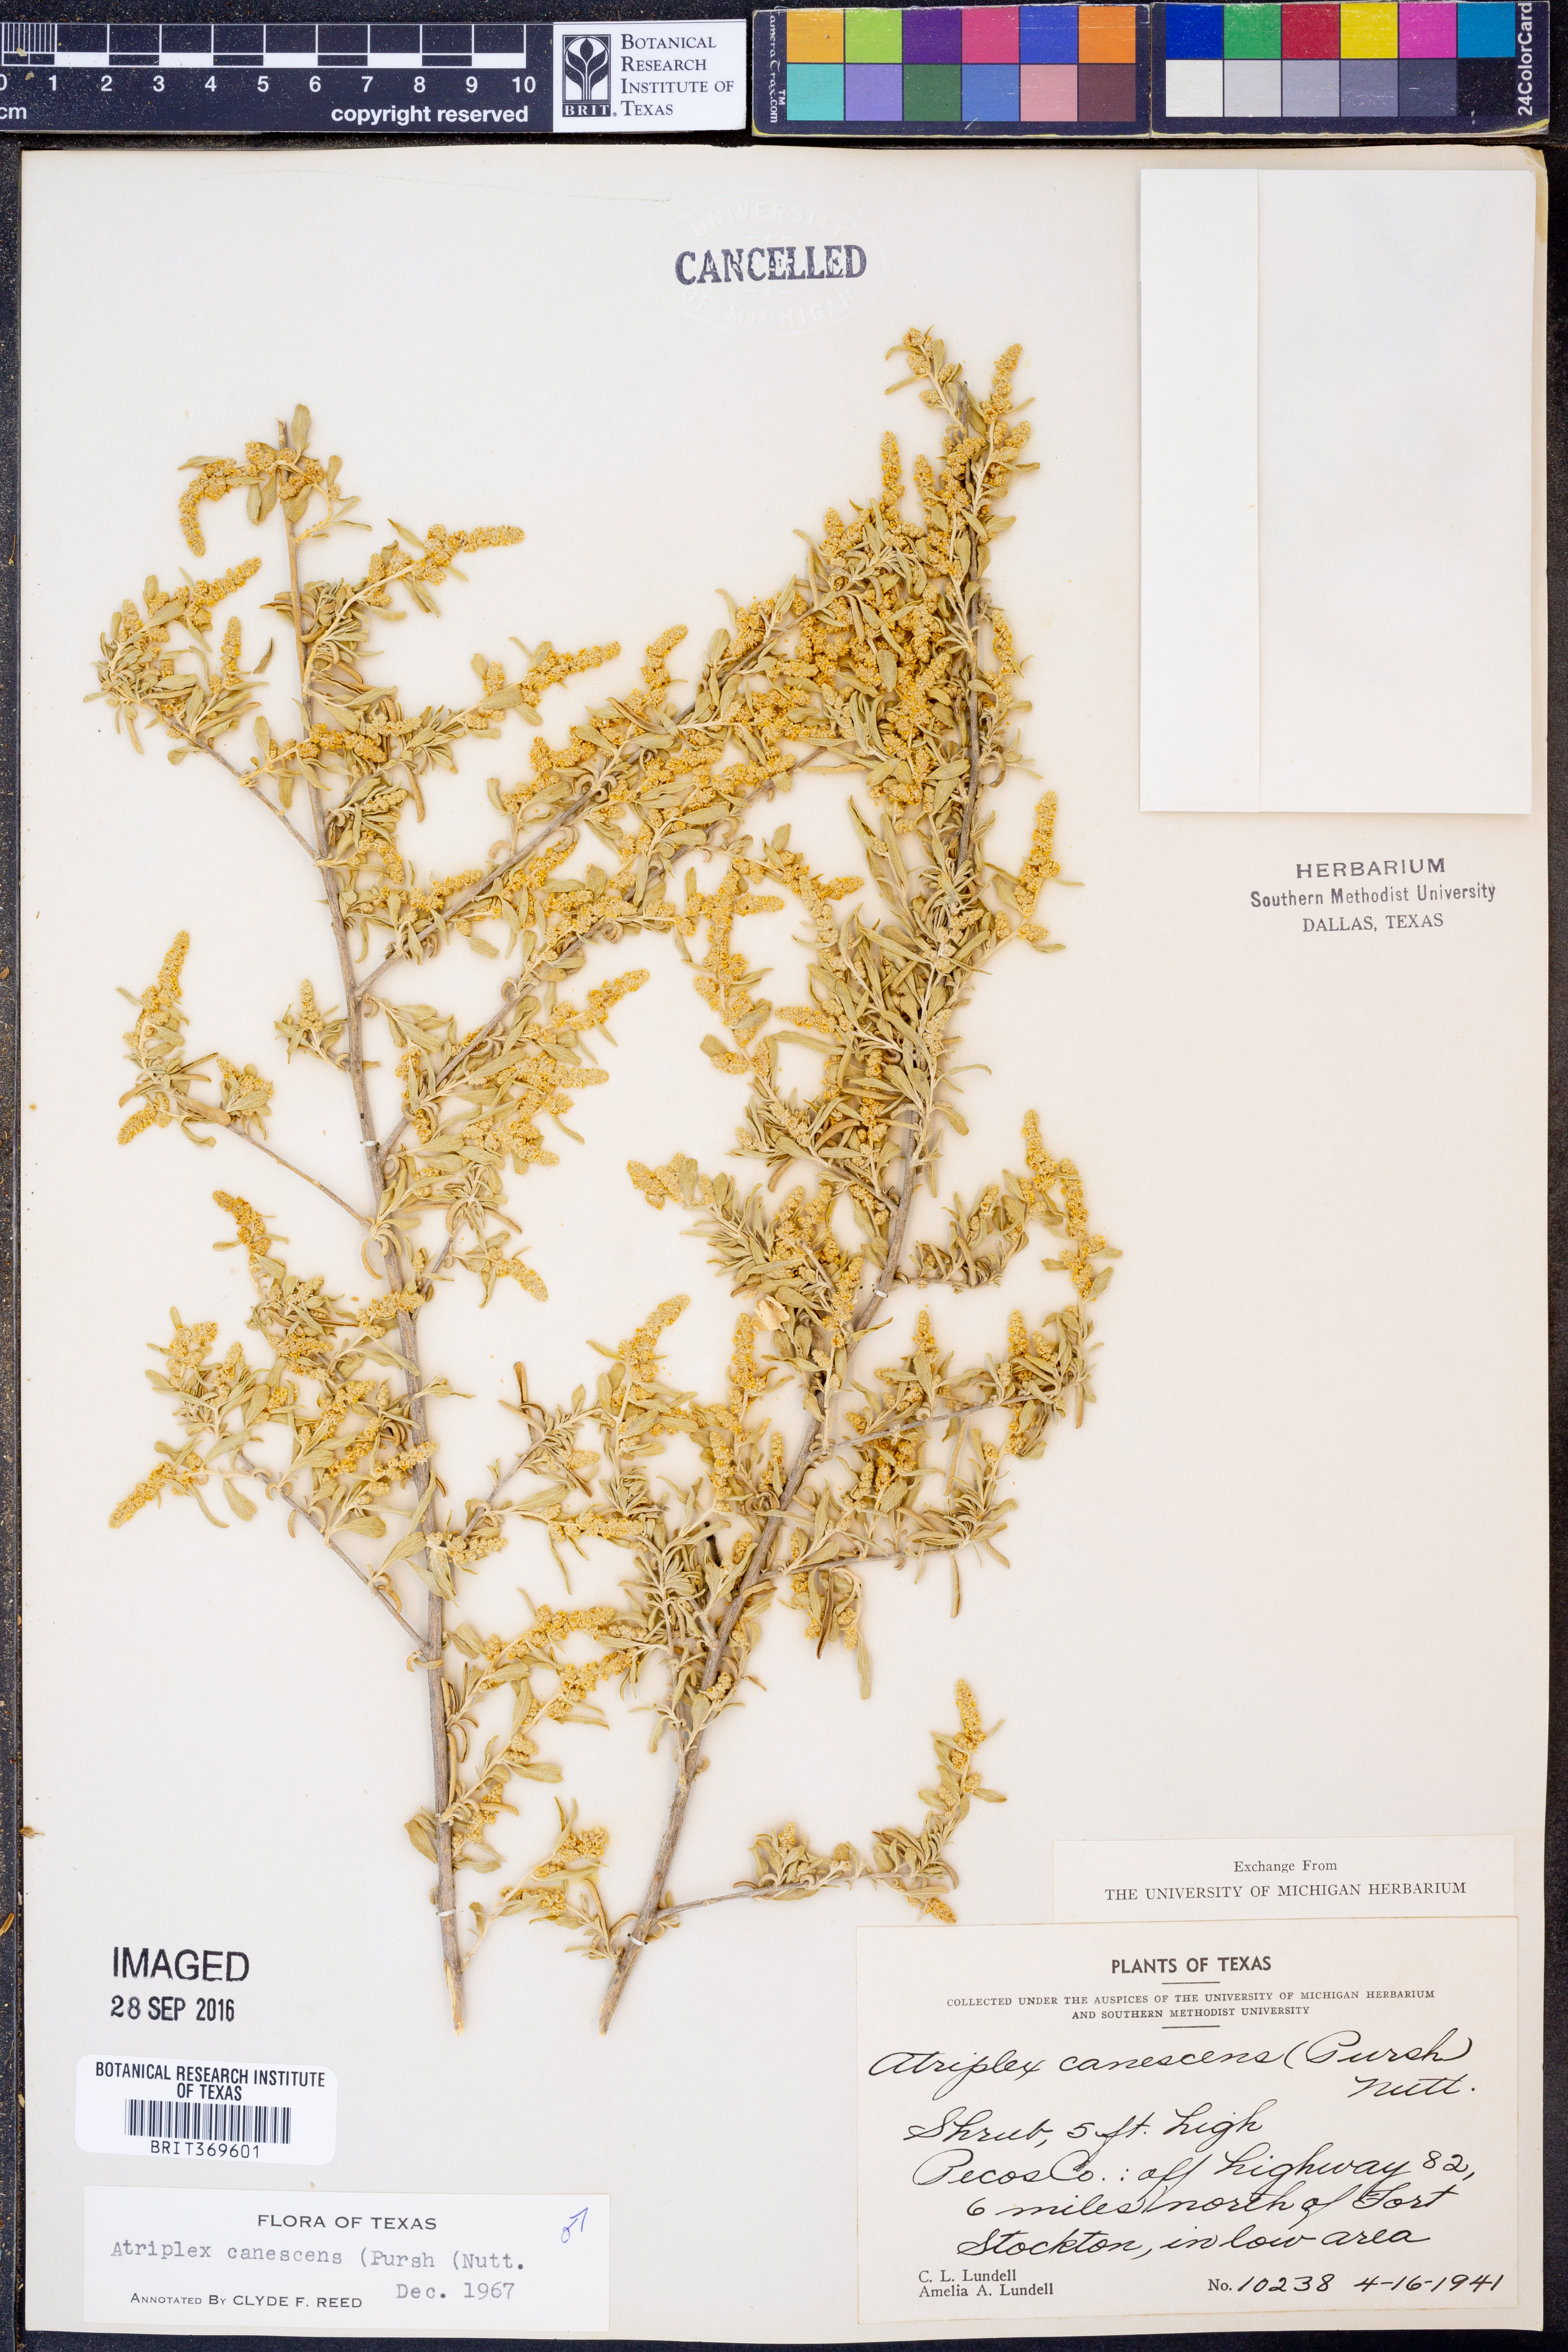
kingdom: Plantae
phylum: Tracheophyta
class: Magnoliopsida
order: Caryophyllales
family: Amaranthaceae
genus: Atriplex
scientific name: Atriplex canescens
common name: Four-wing saltbush
